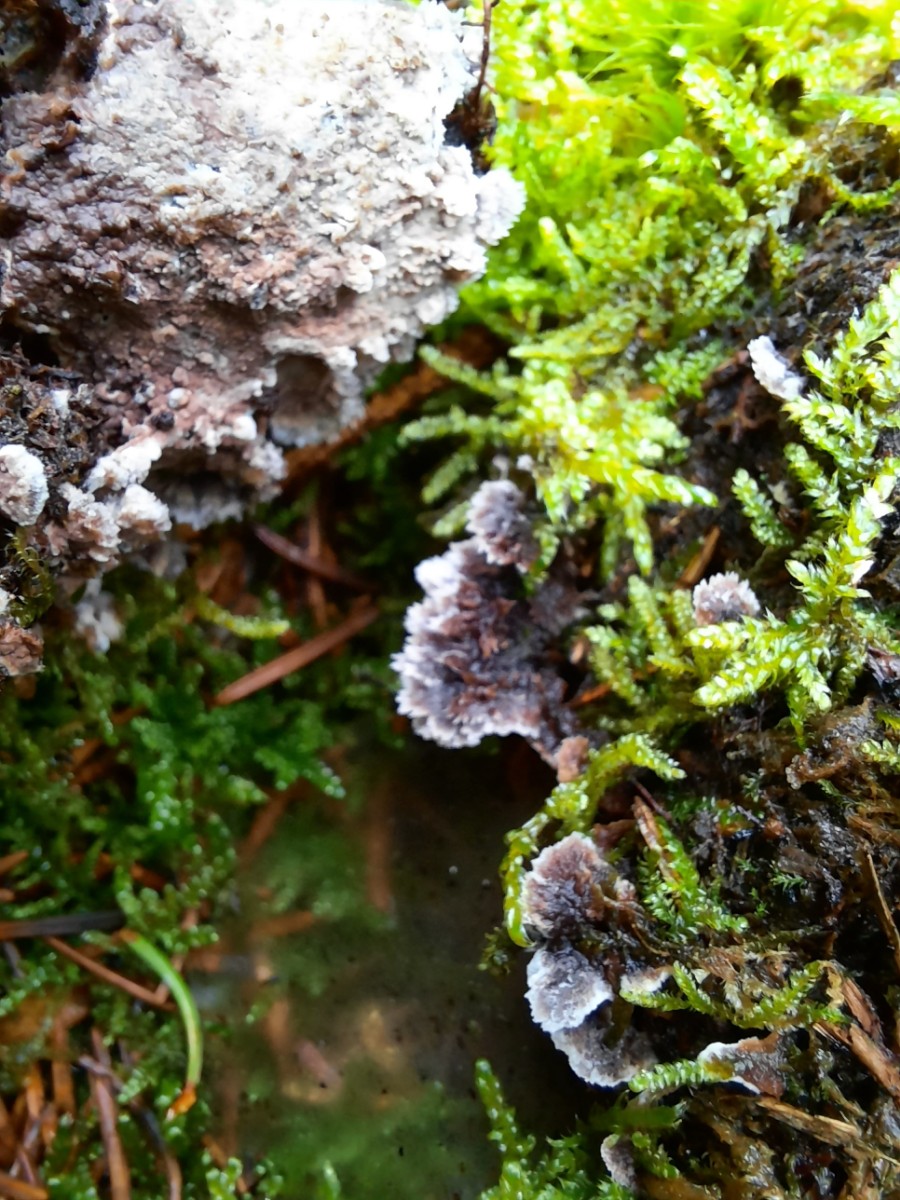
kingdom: Fungi
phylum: Basidiomycota
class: Agaricomycetes
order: Thelephorales
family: Thelephoraceae
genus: Thelephora
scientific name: Thelephora terrestris
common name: fliget frynsesvamp
